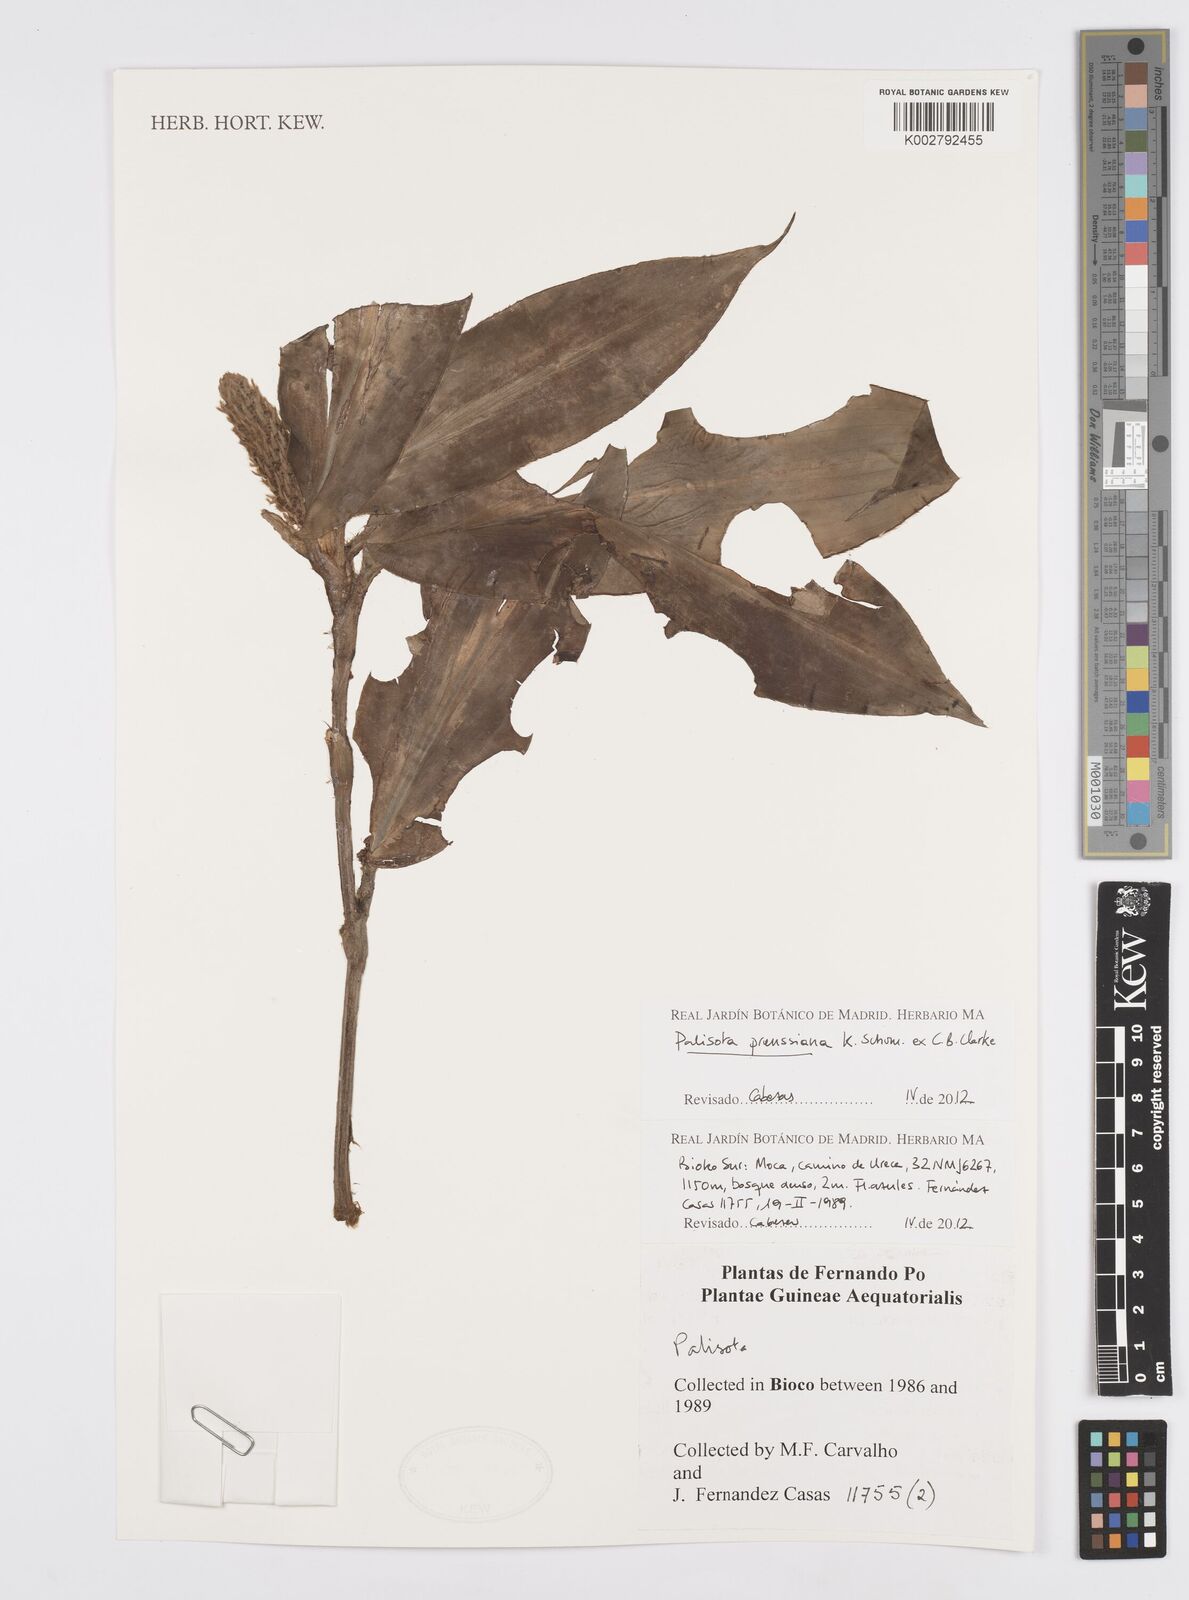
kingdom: Plantae
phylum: Tracheophyta
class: Liliopsida
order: Commelinales
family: Commelinaceae
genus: Palisota
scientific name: Palisota preussiana
